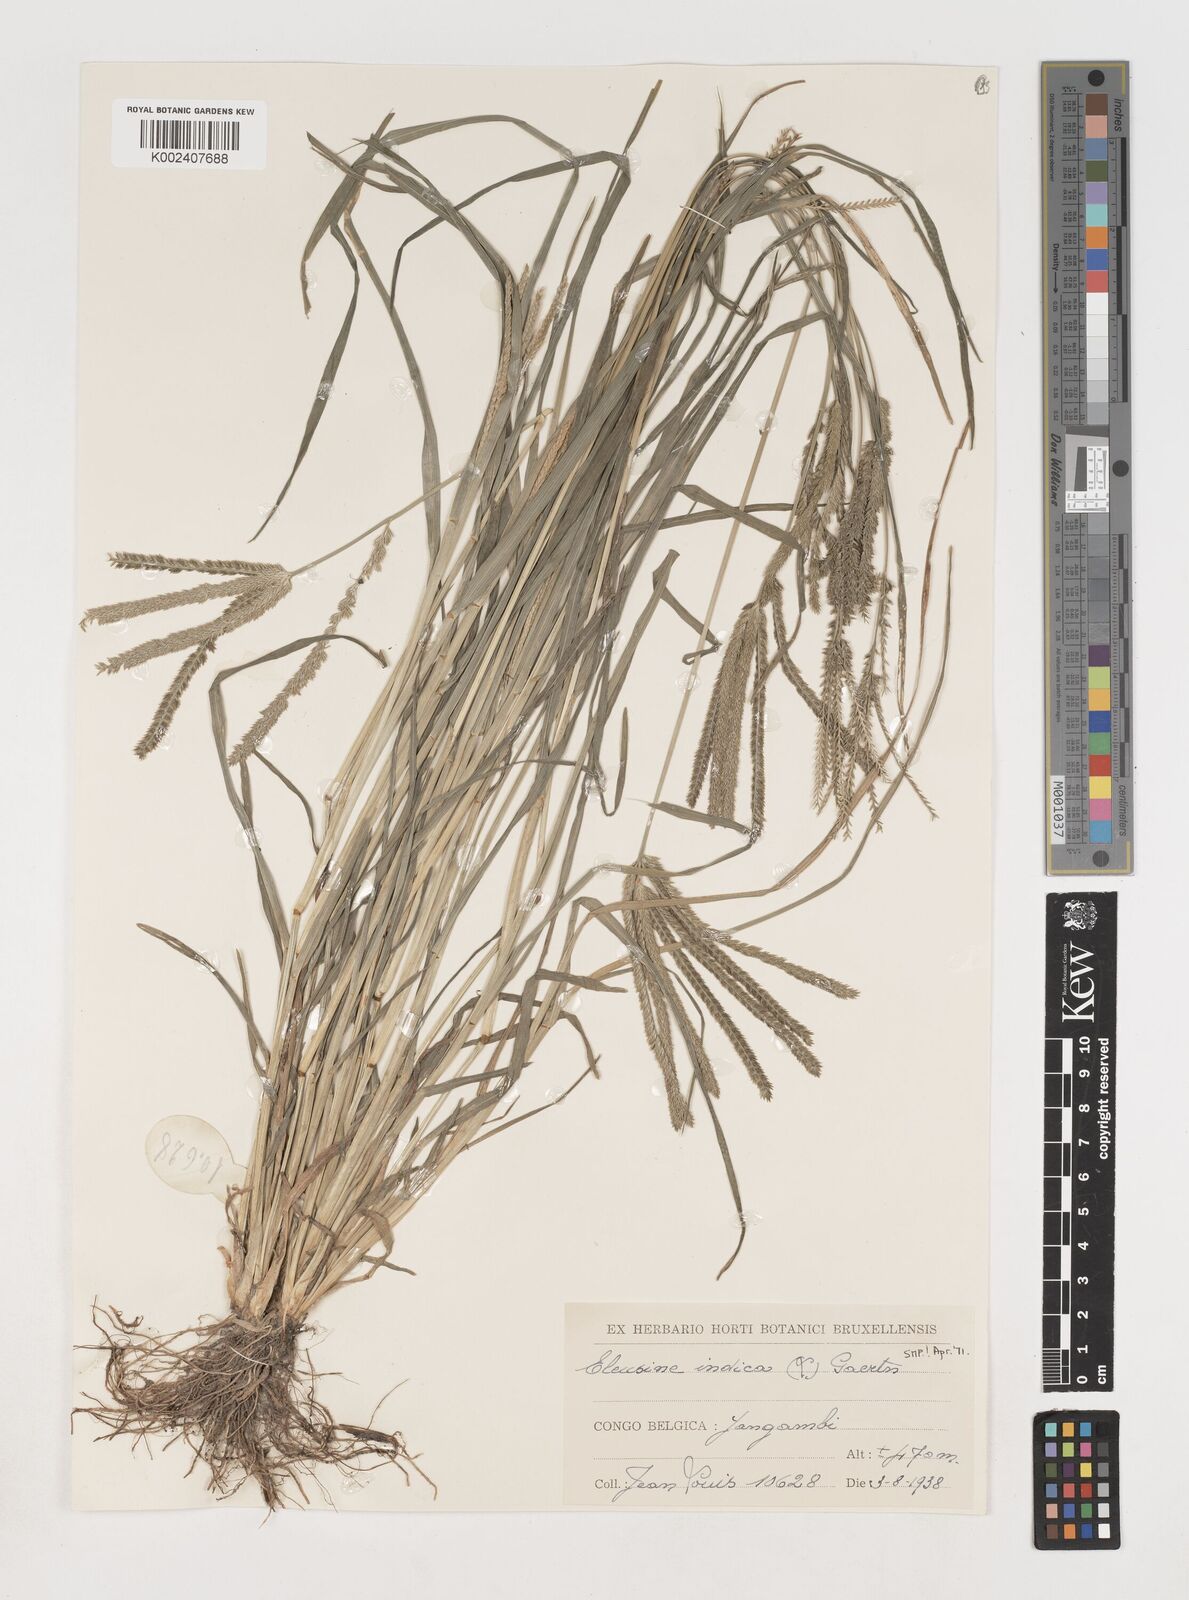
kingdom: Plantae
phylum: Tracheophyta
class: Liliopsida
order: Poales
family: Poaceae
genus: Eleusine
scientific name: Eleusine indica
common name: Yard-grass
